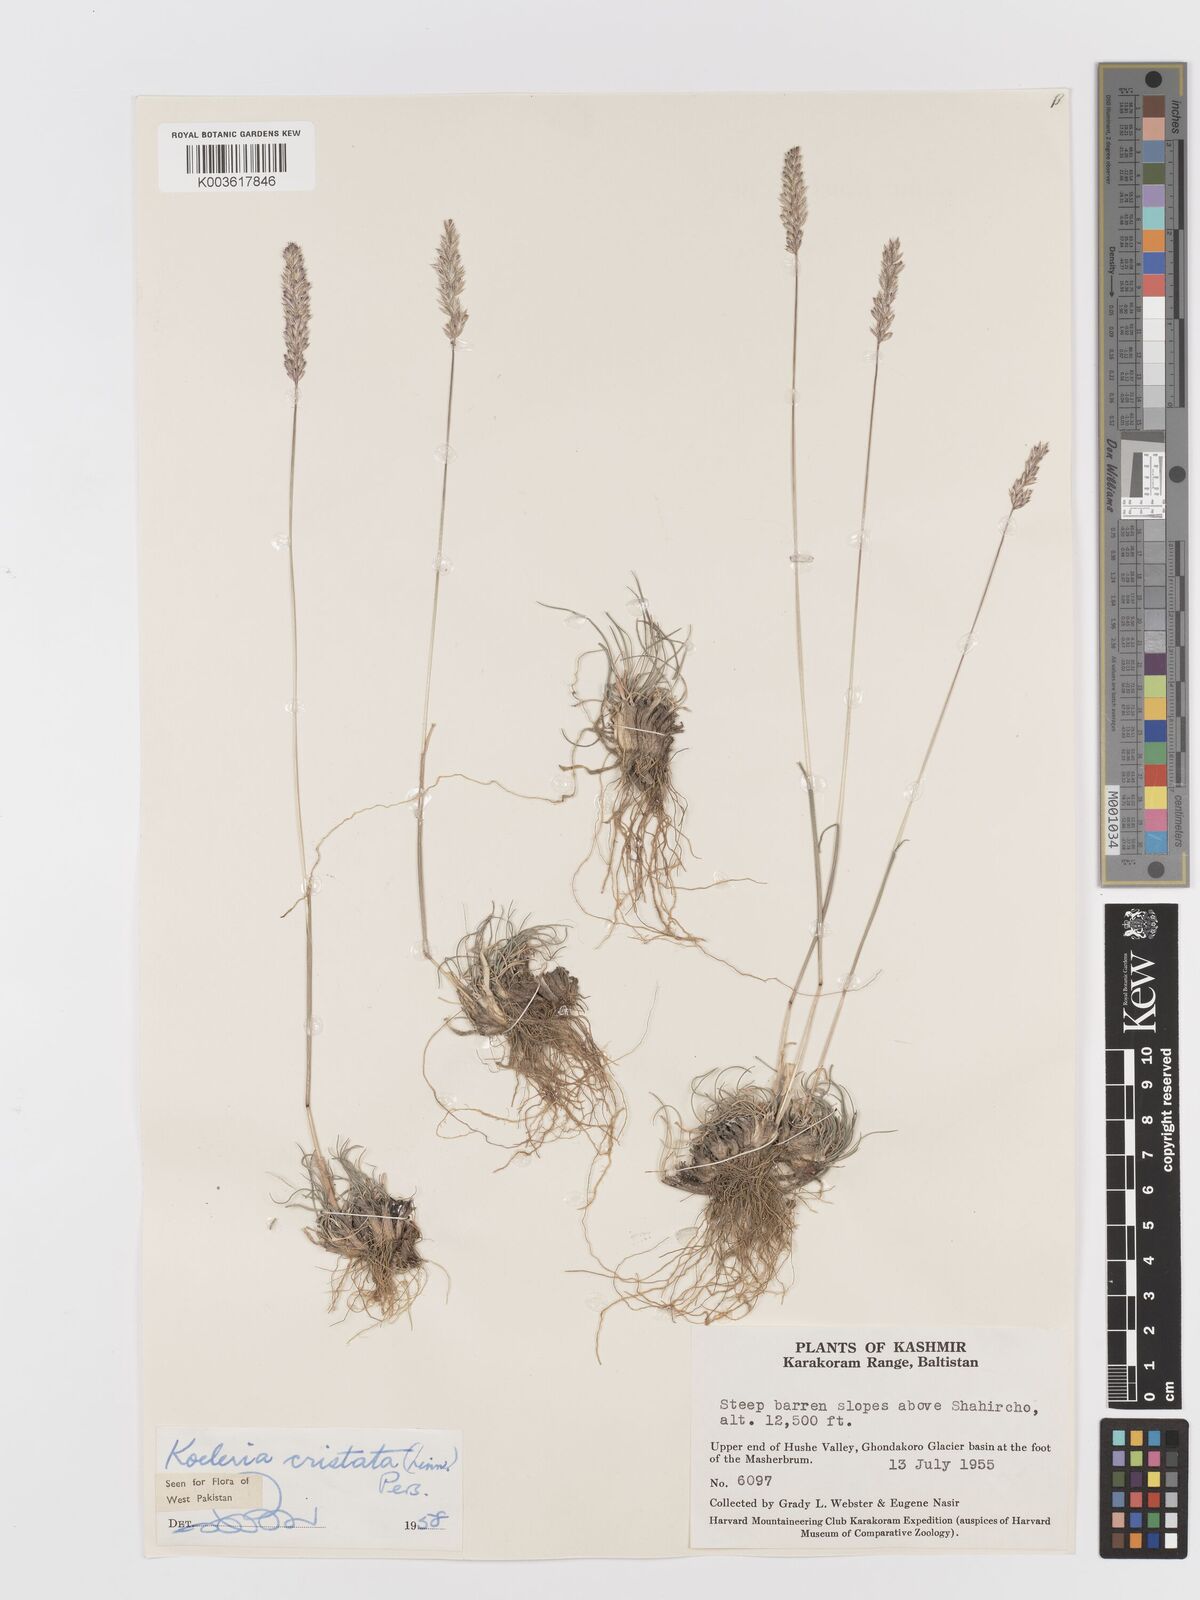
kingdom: Plantae
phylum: Tracheophyta
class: Liliopsida
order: Poales
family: Poaceae
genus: Koeleria
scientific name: Koeleria macrantha
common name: Crested hair-grass
